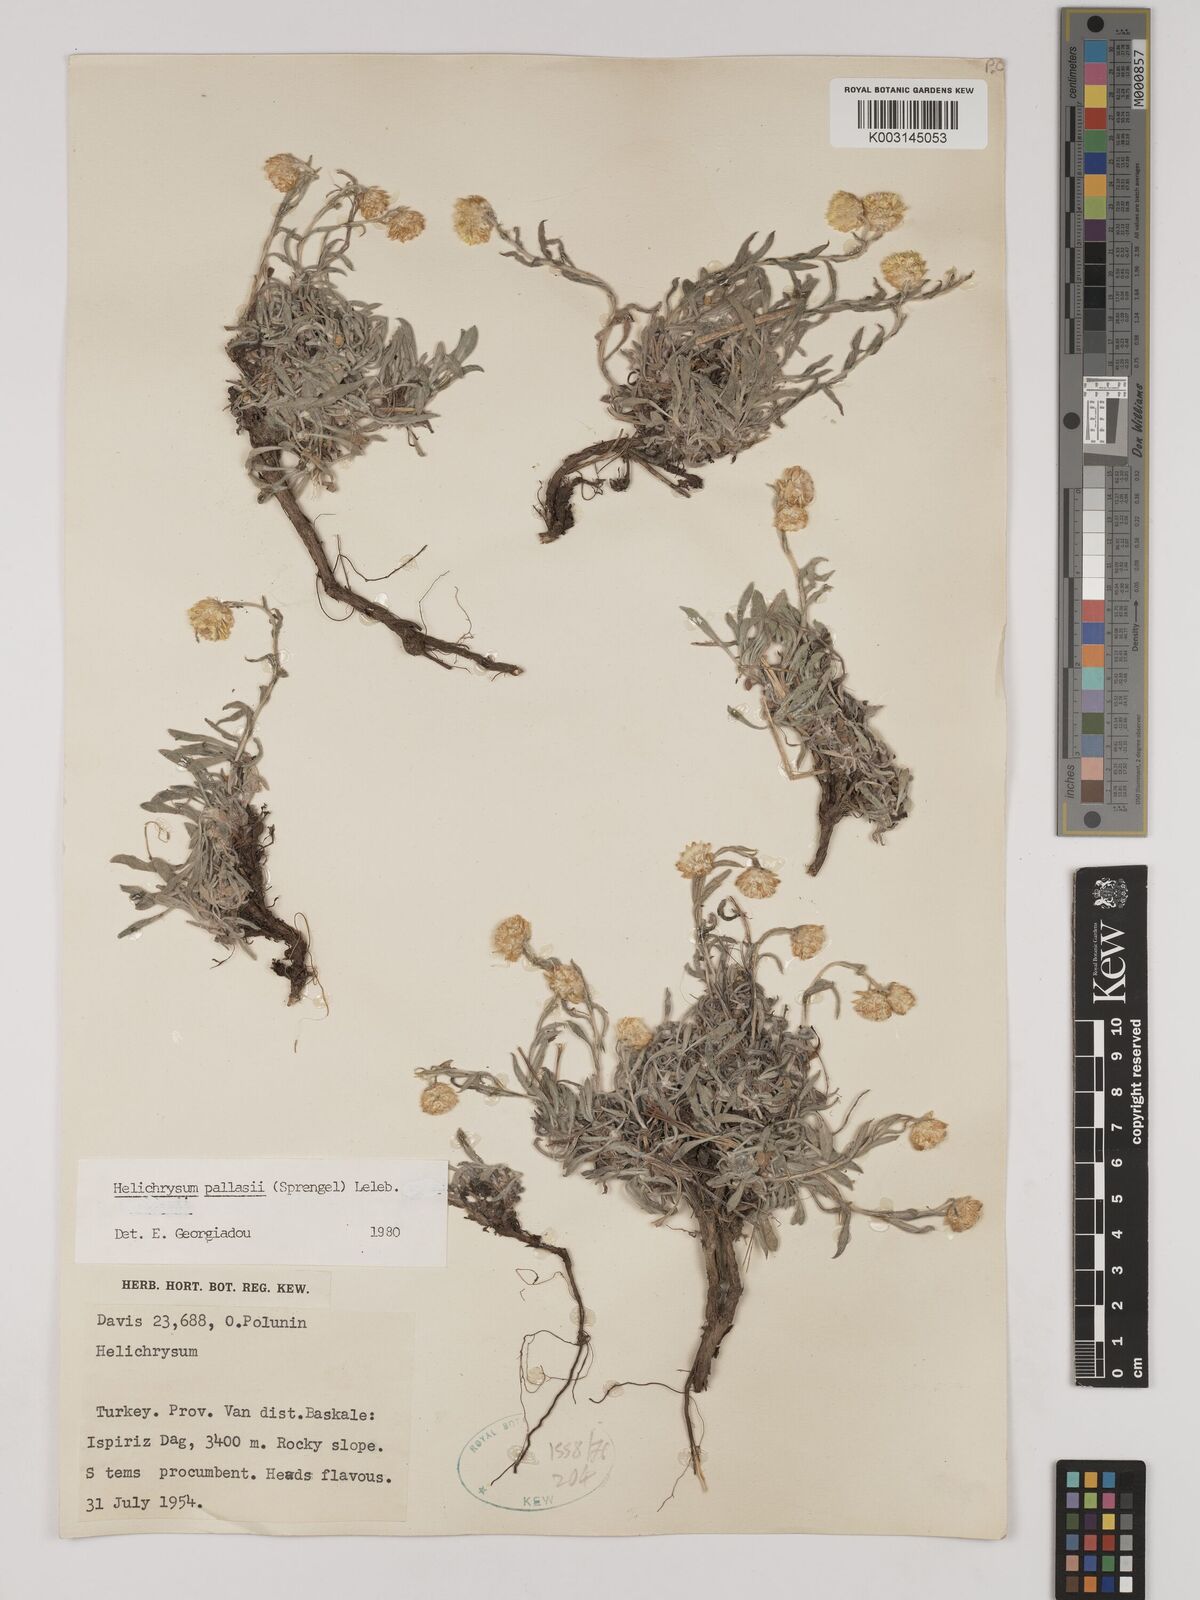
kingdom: Plantae
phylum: Tracheophyta
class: Magnoliopsida
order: Asterales
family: Asteraceae
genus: Helichrysum
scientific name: Helichrysum pallasii
